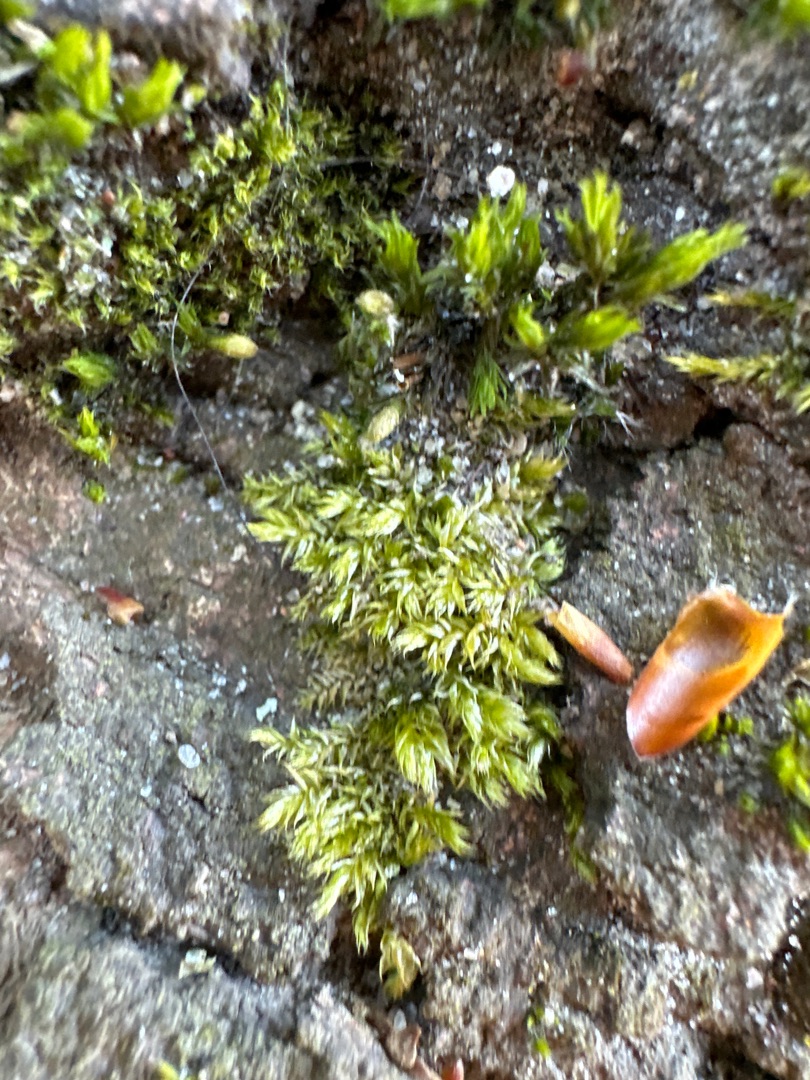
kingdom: Plantae
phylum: Bryophyta
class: Bryopsida
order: Hypnales
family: Brachytheciaceae
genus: Brachythecium
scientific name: Brachythecium rutabulum
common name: Almindelig kortkapsel
